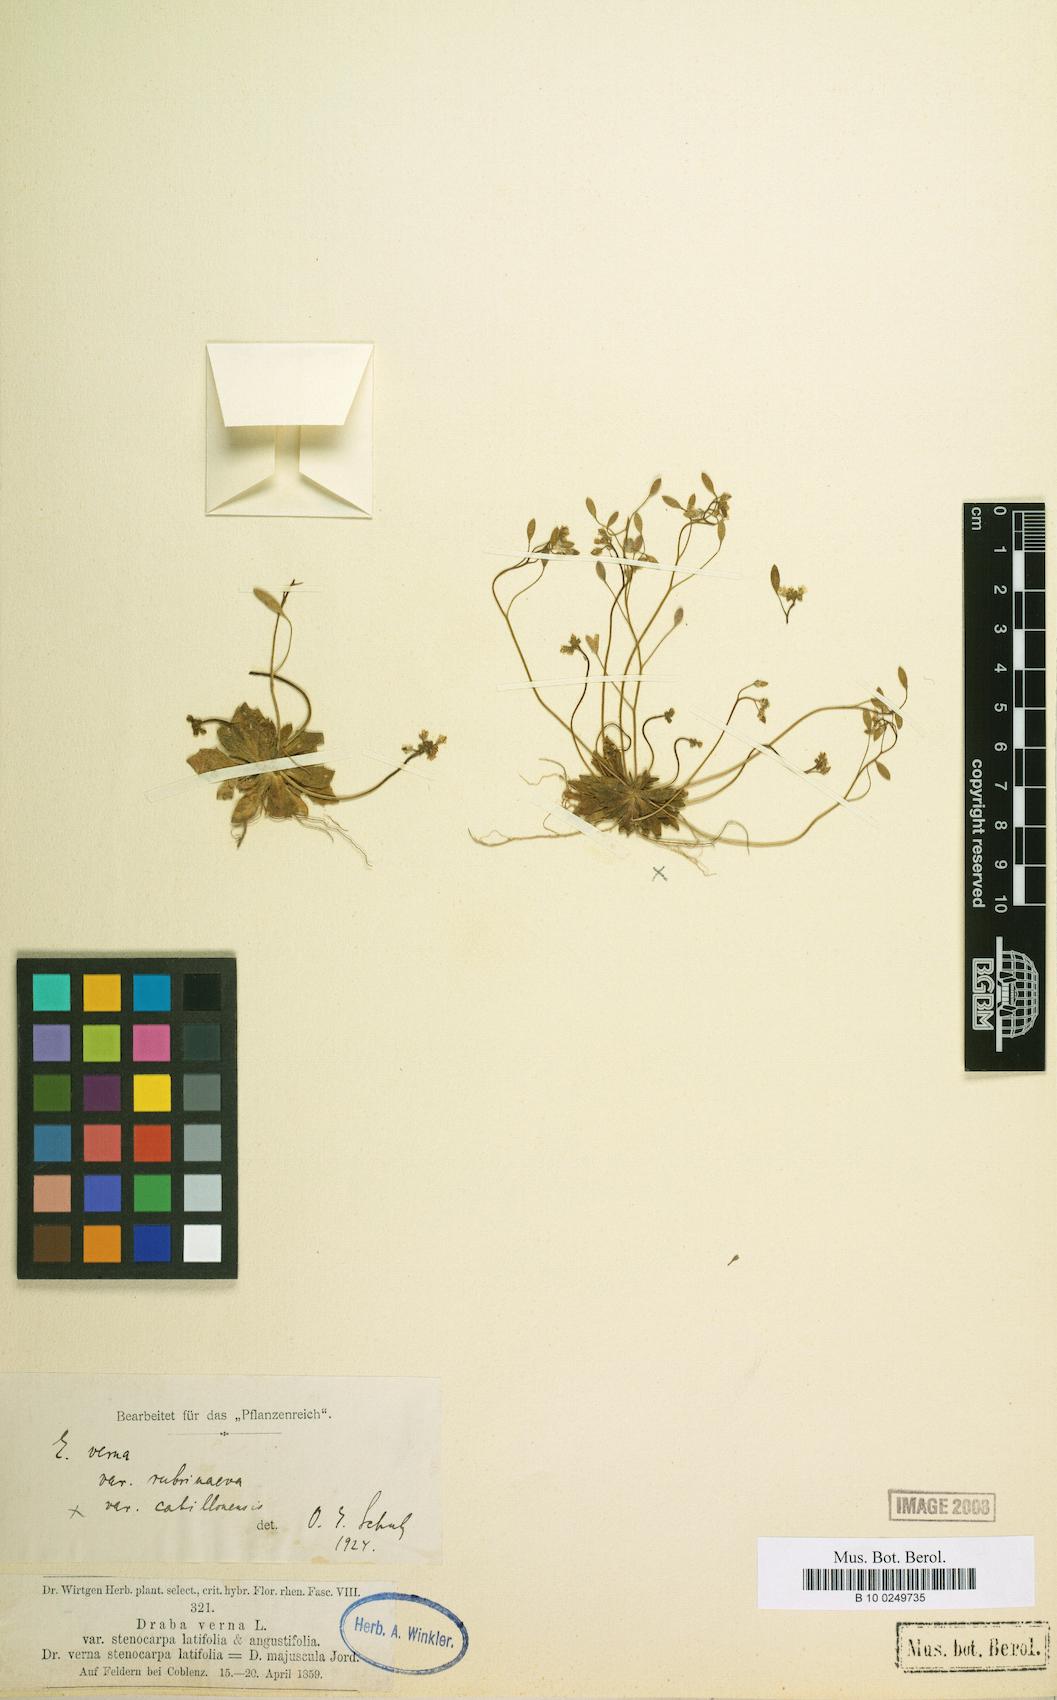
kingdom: Plantae
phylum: Tracheophyta
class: Magnoliopsida
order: Brassicales
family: Brassicaceae
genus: Draba
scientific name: Draba verna
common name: Spring draba
